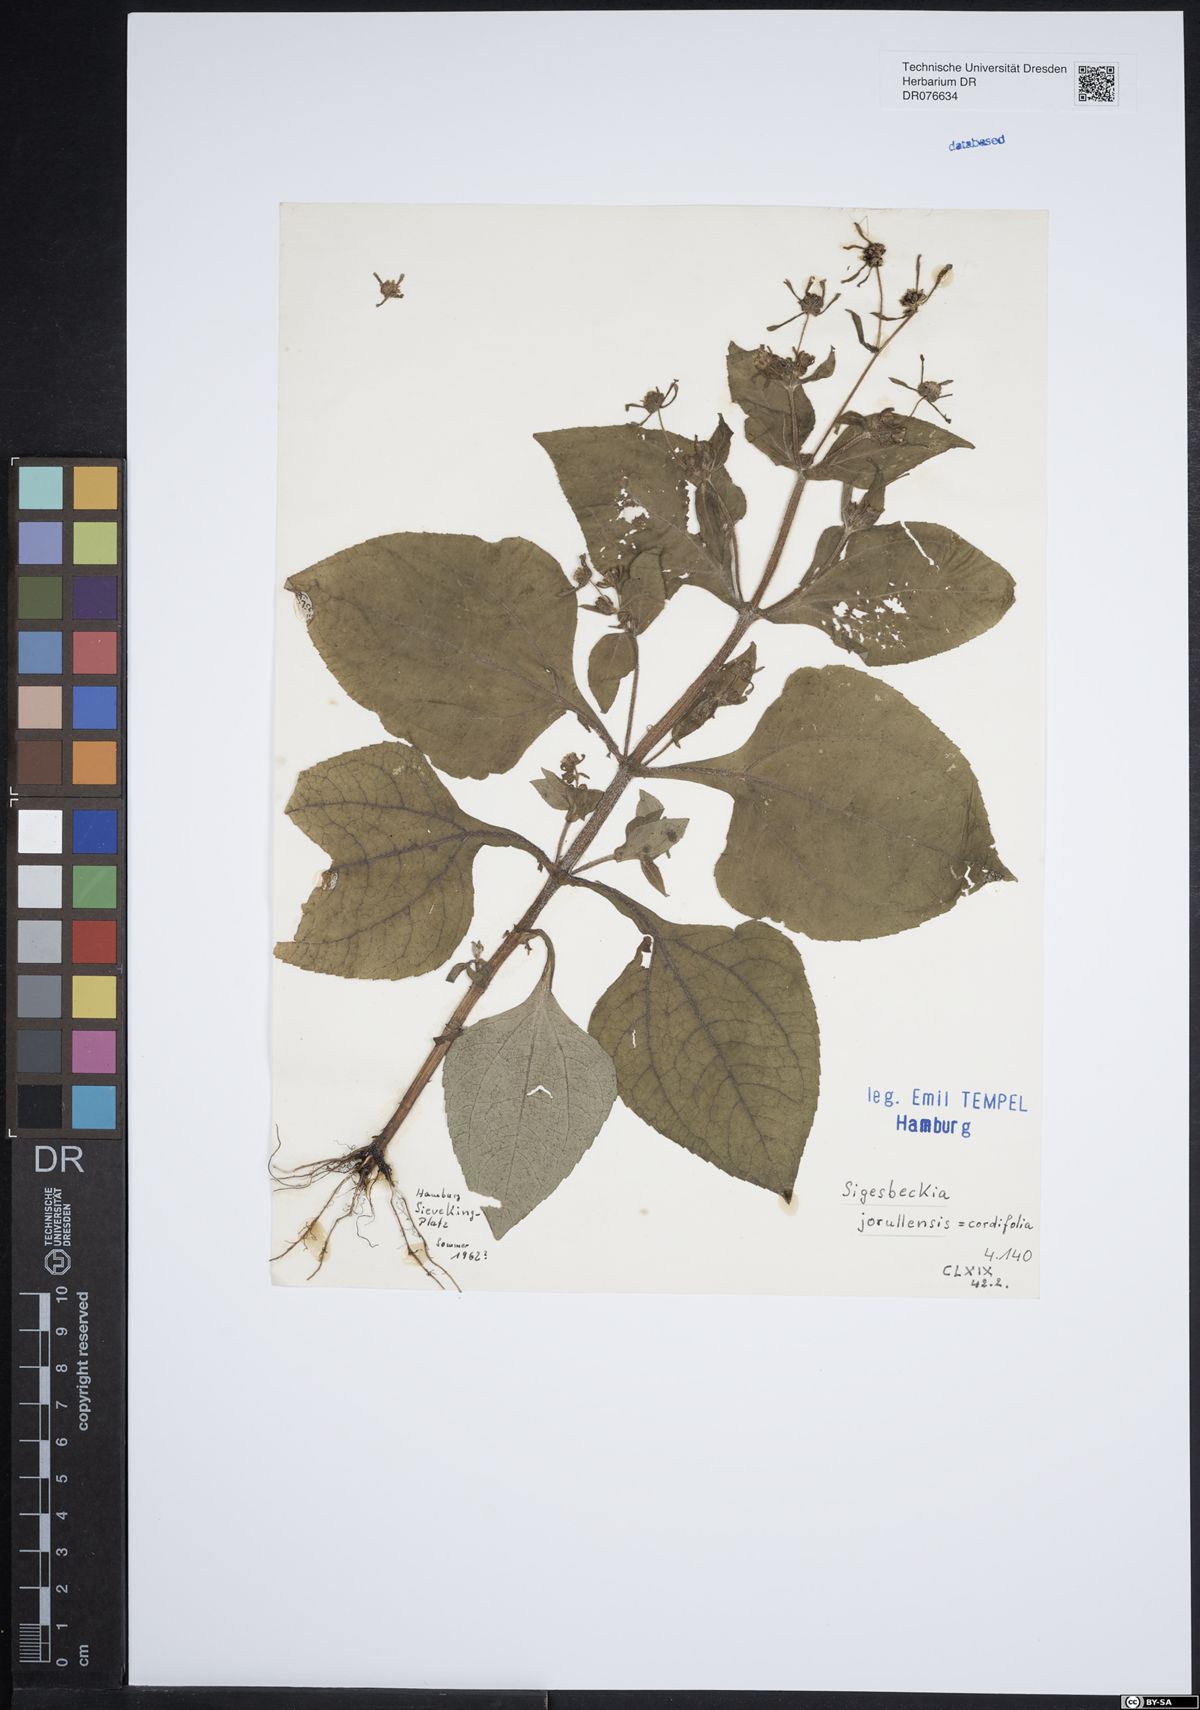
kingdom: Plantae
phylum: Tracheophyta
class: Magnoliopsida
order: Asterales
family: Asteraceae
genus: Sigesbeckia
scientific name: Sigesbeckia jorullensis
